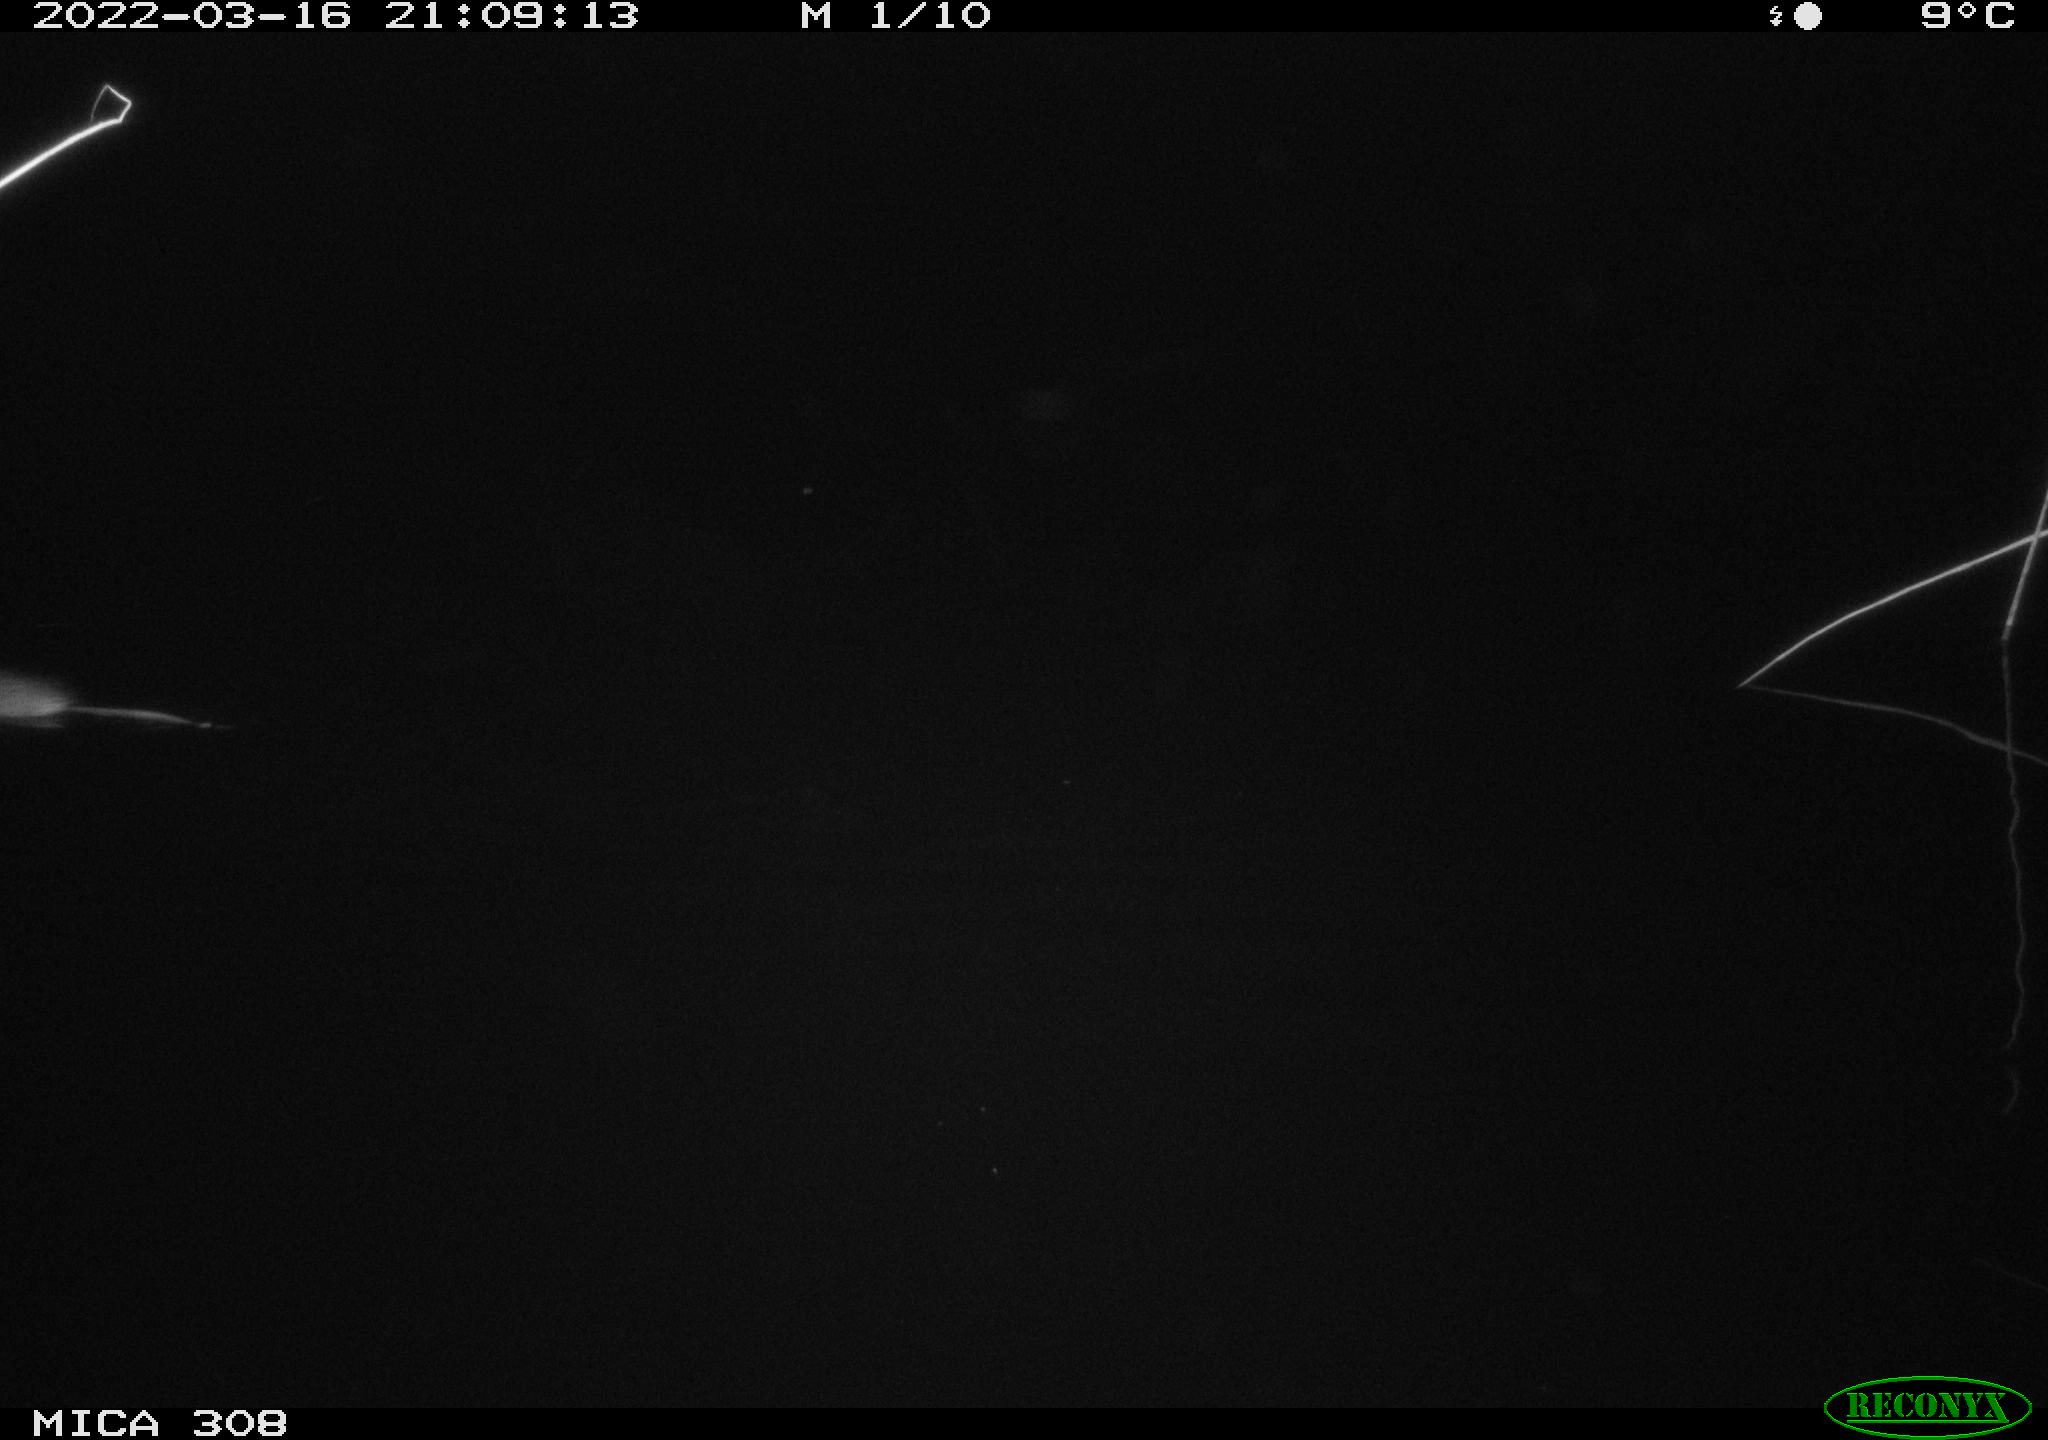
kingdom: Animalia
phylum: Chordata
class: Mammalia
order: Rodentia
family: Cricetidae
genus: Ondatra
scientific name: Ondatra zibethicus
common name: Muskrat
